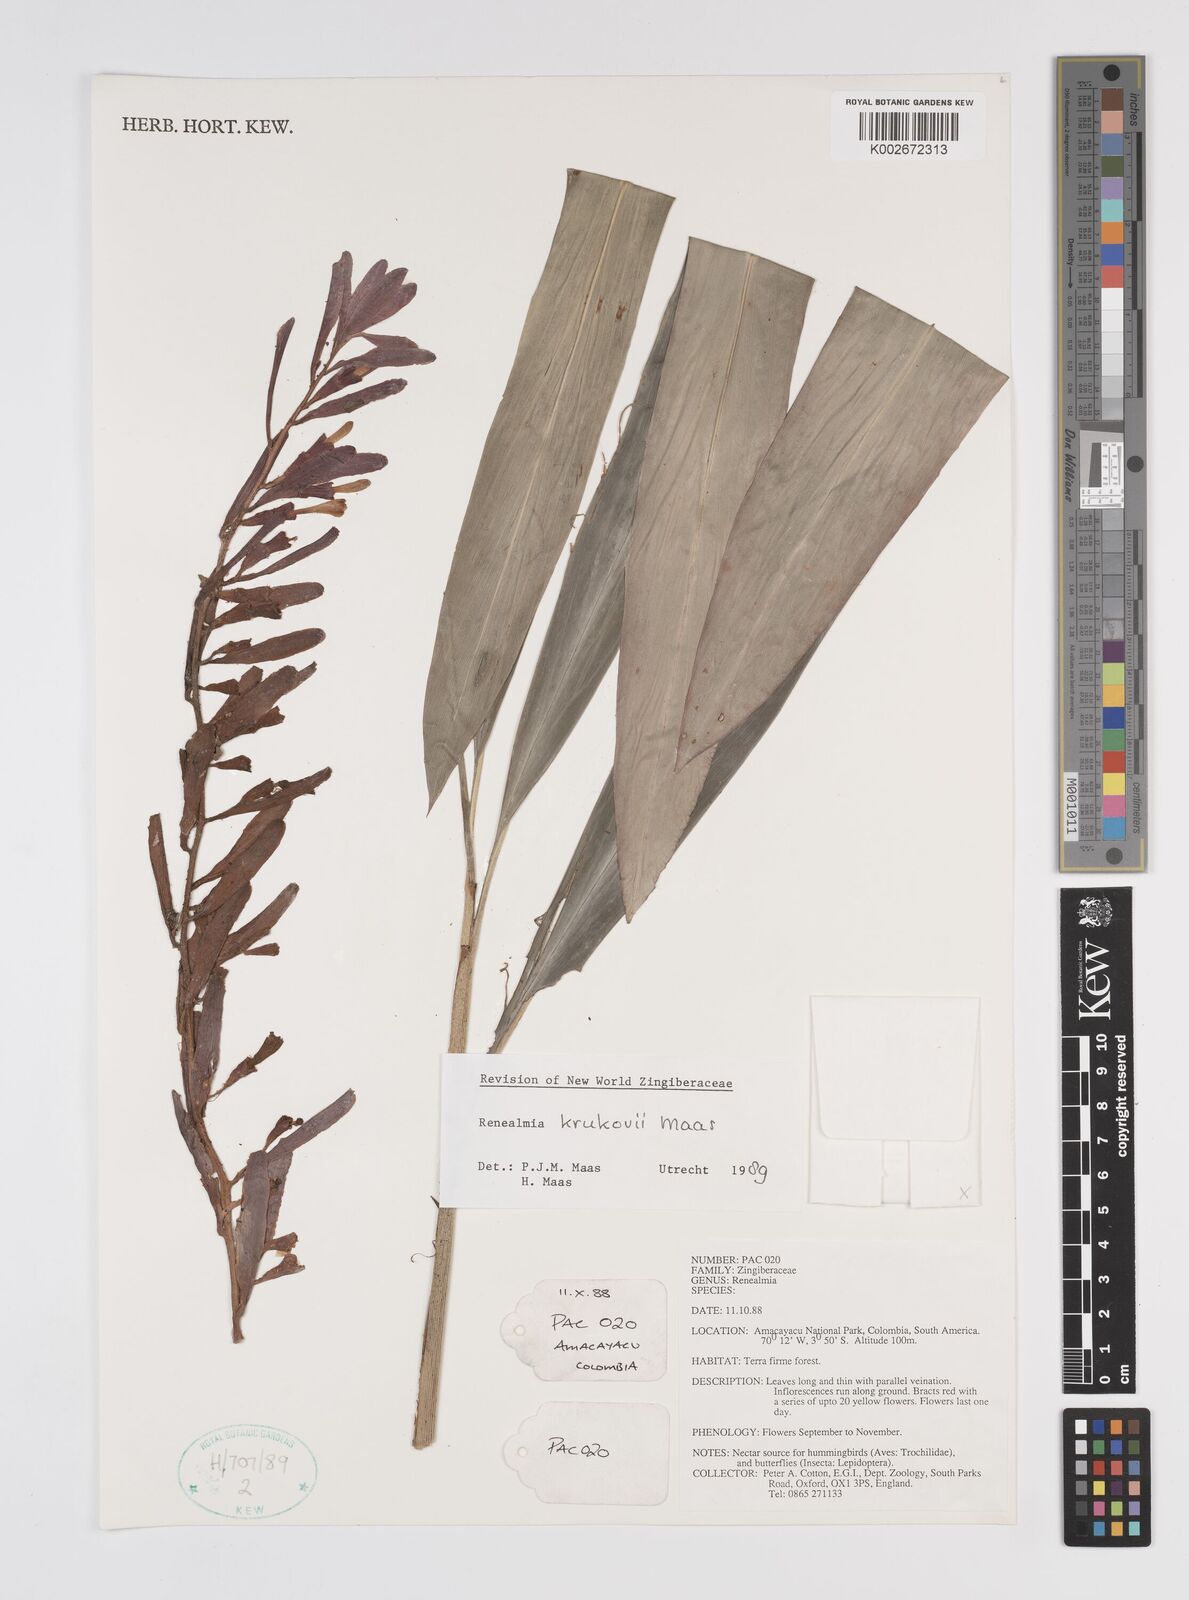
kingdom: Plantae
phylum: Tracheophyta
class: Liliopsida
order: Zingiberales
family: Zingiberaceae
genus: Renealmia
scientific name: Renealmia krukovii
